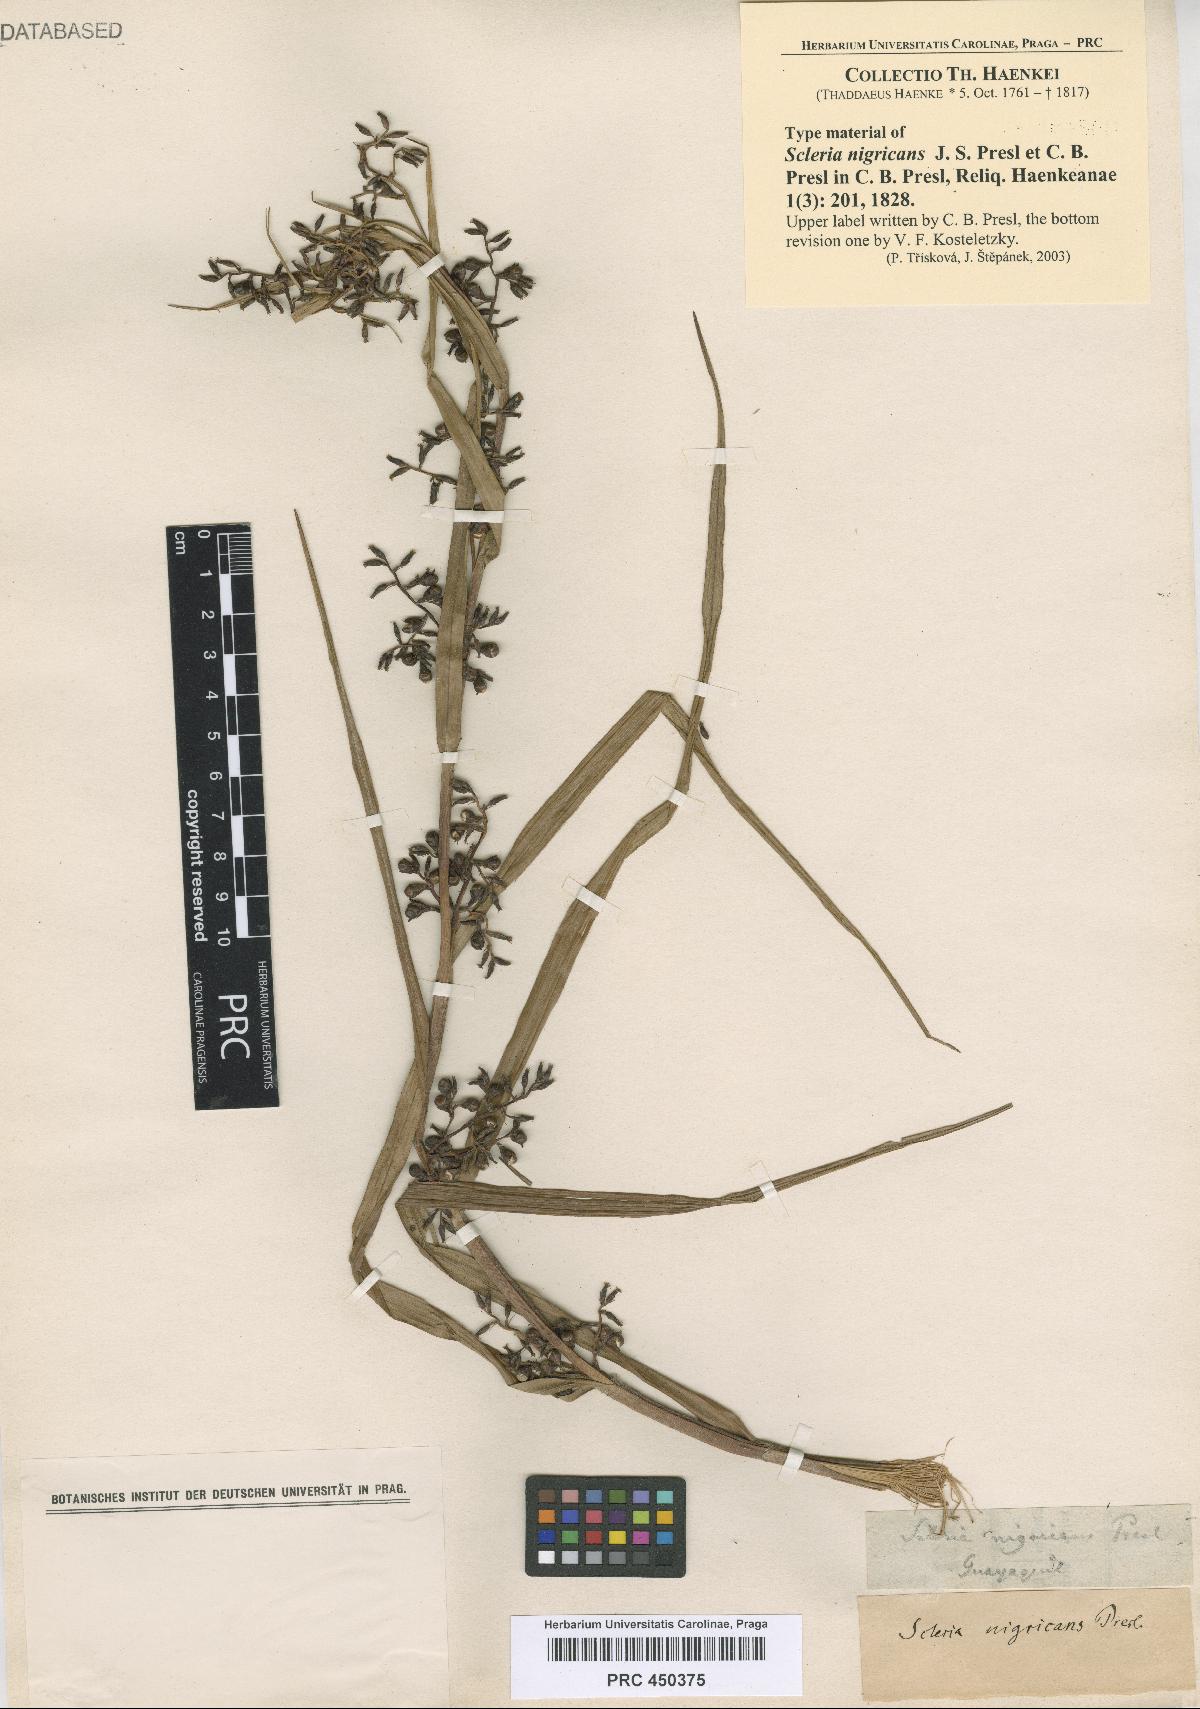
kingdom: Plantae
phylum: Tracheophyta
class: Liliopsida
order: Poales
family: Cyperaceae
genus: Scleria
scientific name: Scleria flagellum-nigrorum
